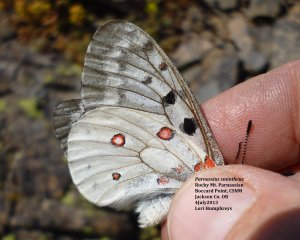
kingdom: Animalia
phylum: Arthropoda
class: Insecta
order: Lepidoptera
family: Papilionidae
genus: Parnassius
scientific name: Parnassius smintheus
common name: Rocky Mountain Parnassian
